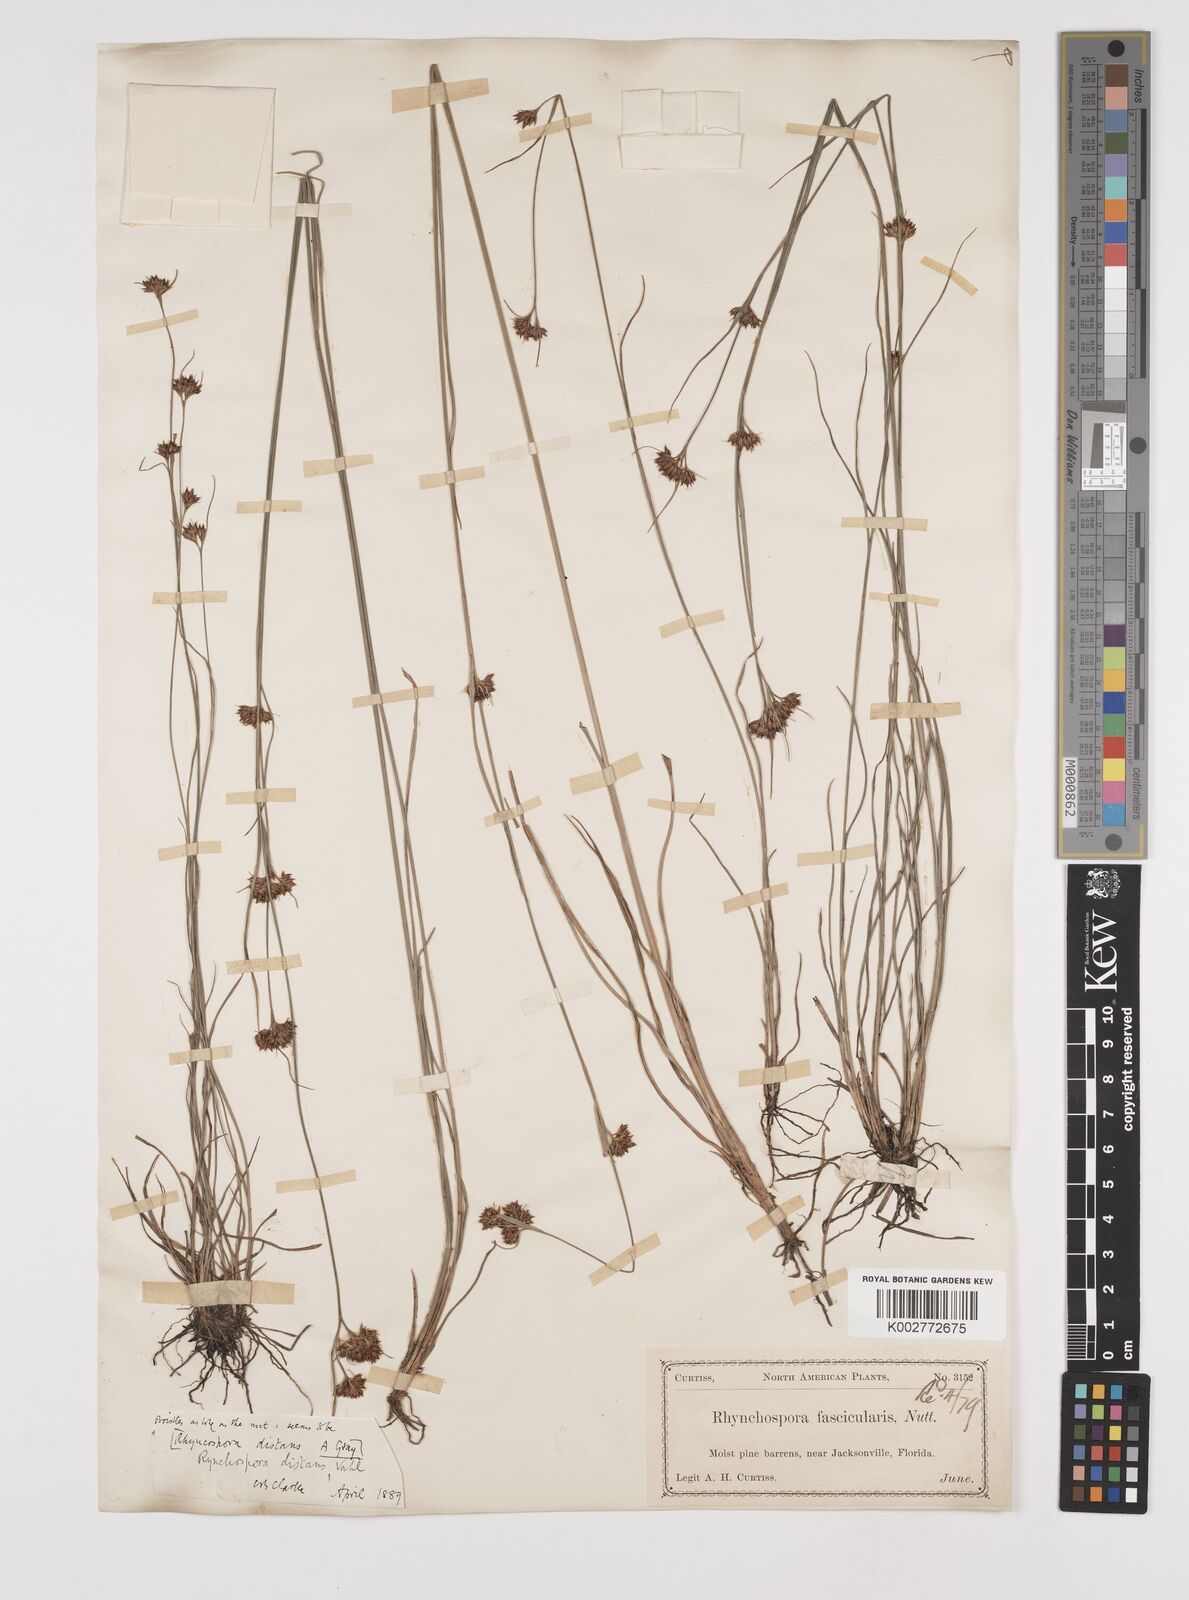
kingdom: Plantae
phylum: Tracheophyta
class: Liliopsida
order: Poales
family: Cyperaceae
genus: Rhynchospora
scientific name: Rhynchospora fascicularis
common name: Fascicled beak sedge
